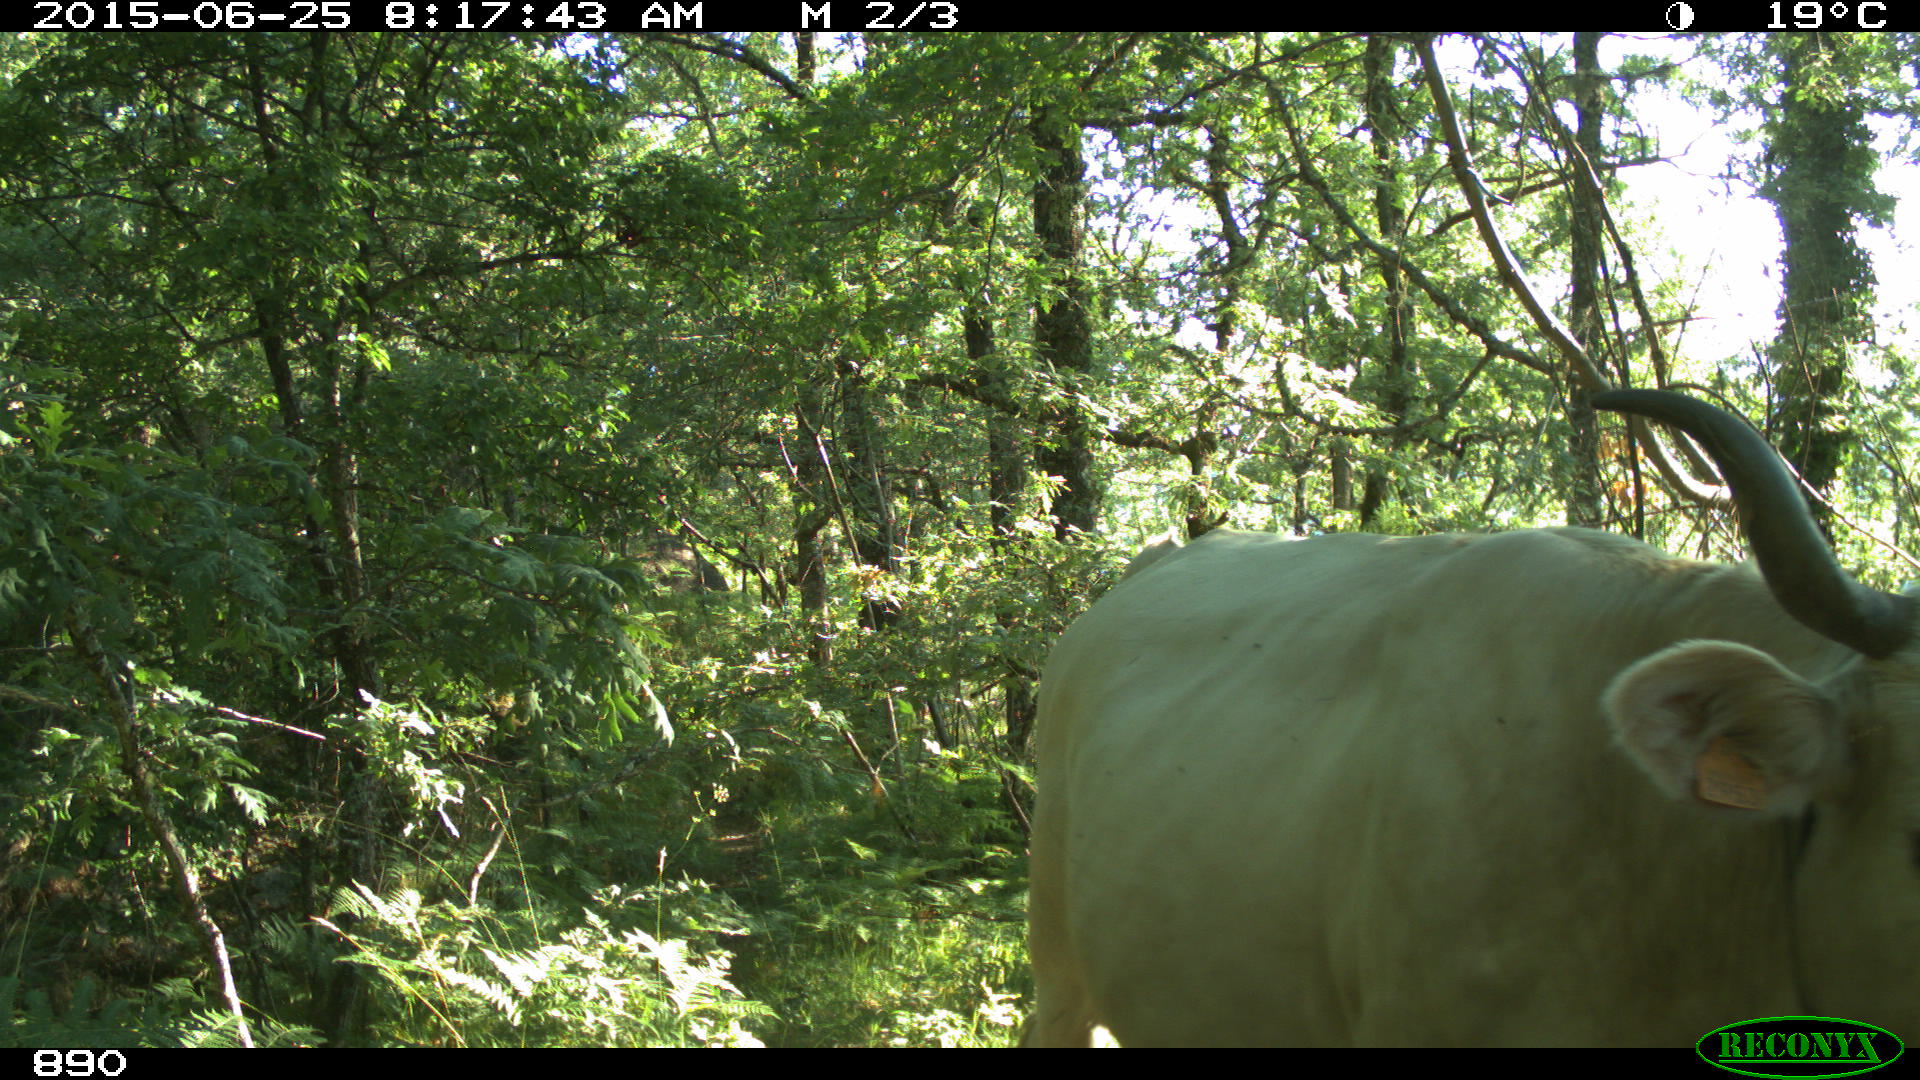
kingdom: Animalia
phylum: Chordata
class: Mammalia
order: Artiodactyla
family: Bovidae
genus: Bos
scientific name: Bos taurus
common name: Domesticated cattle
